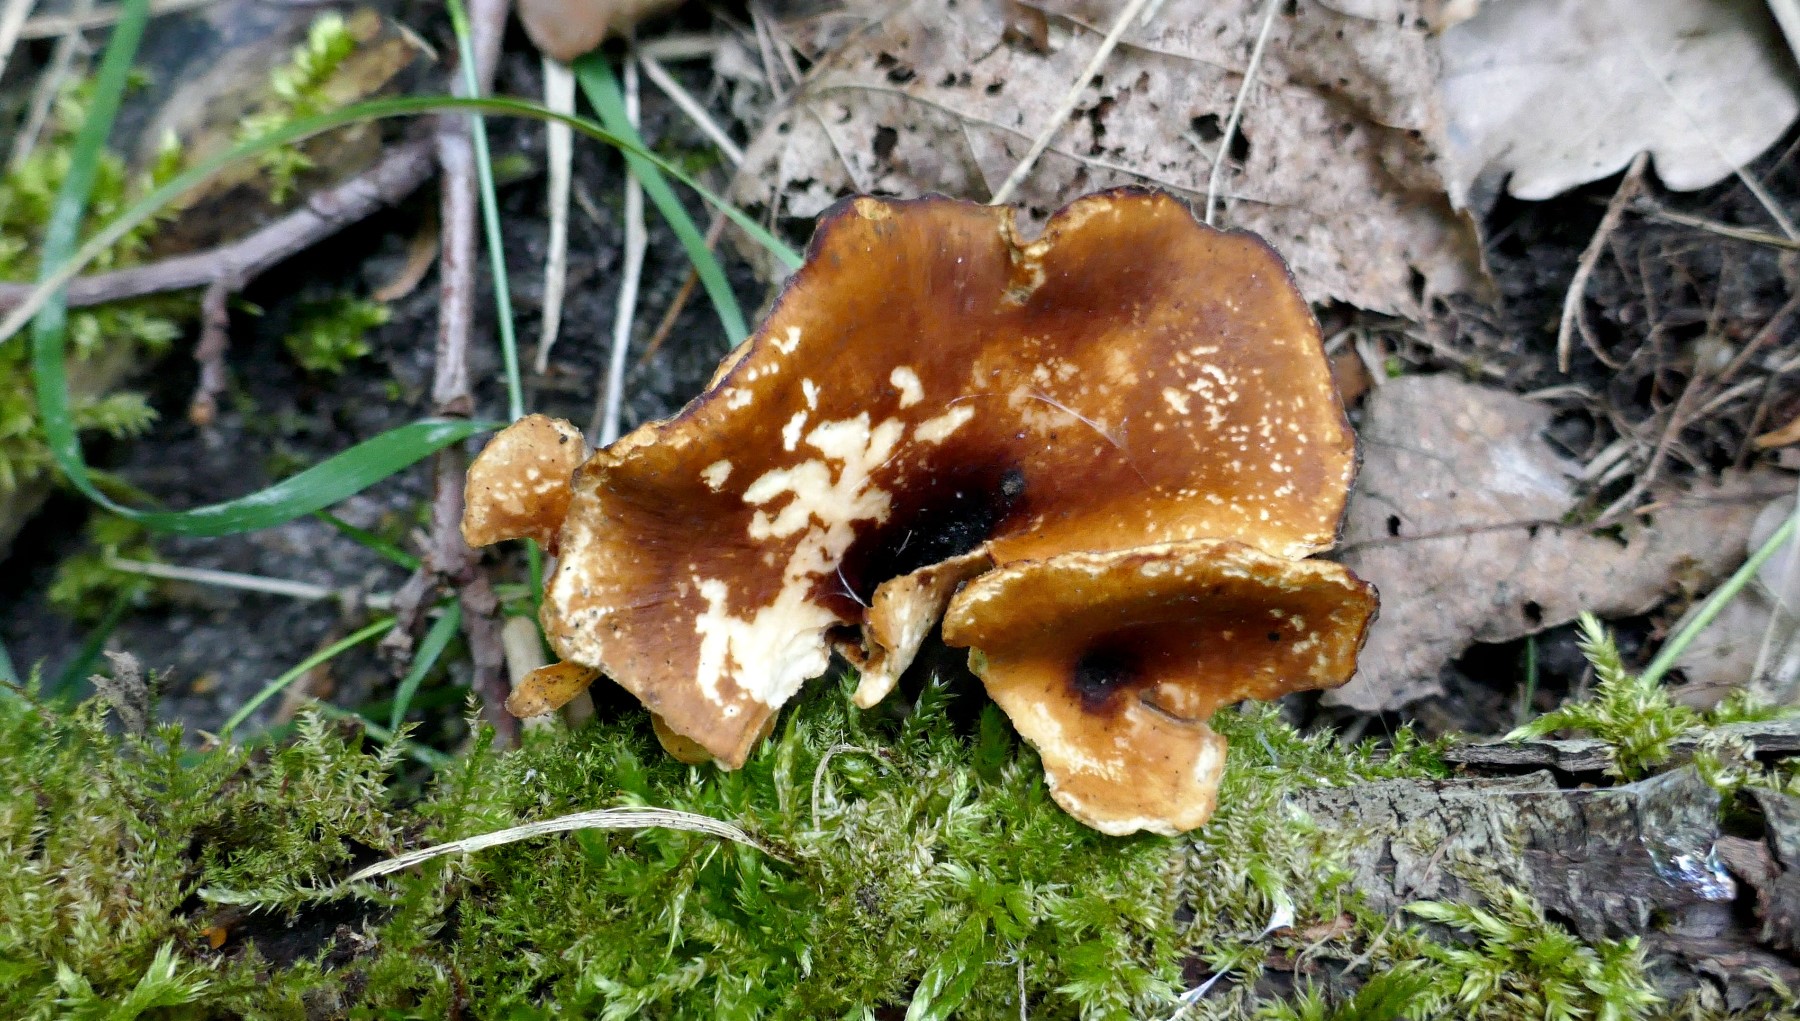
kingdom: Fungi
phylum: Basidiomycota
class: Agaricomycetes
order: Polyporales
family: Polyporaceae
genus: Picipes
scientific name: Picipes badius
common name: kastaniebrun stilkporesvamp
